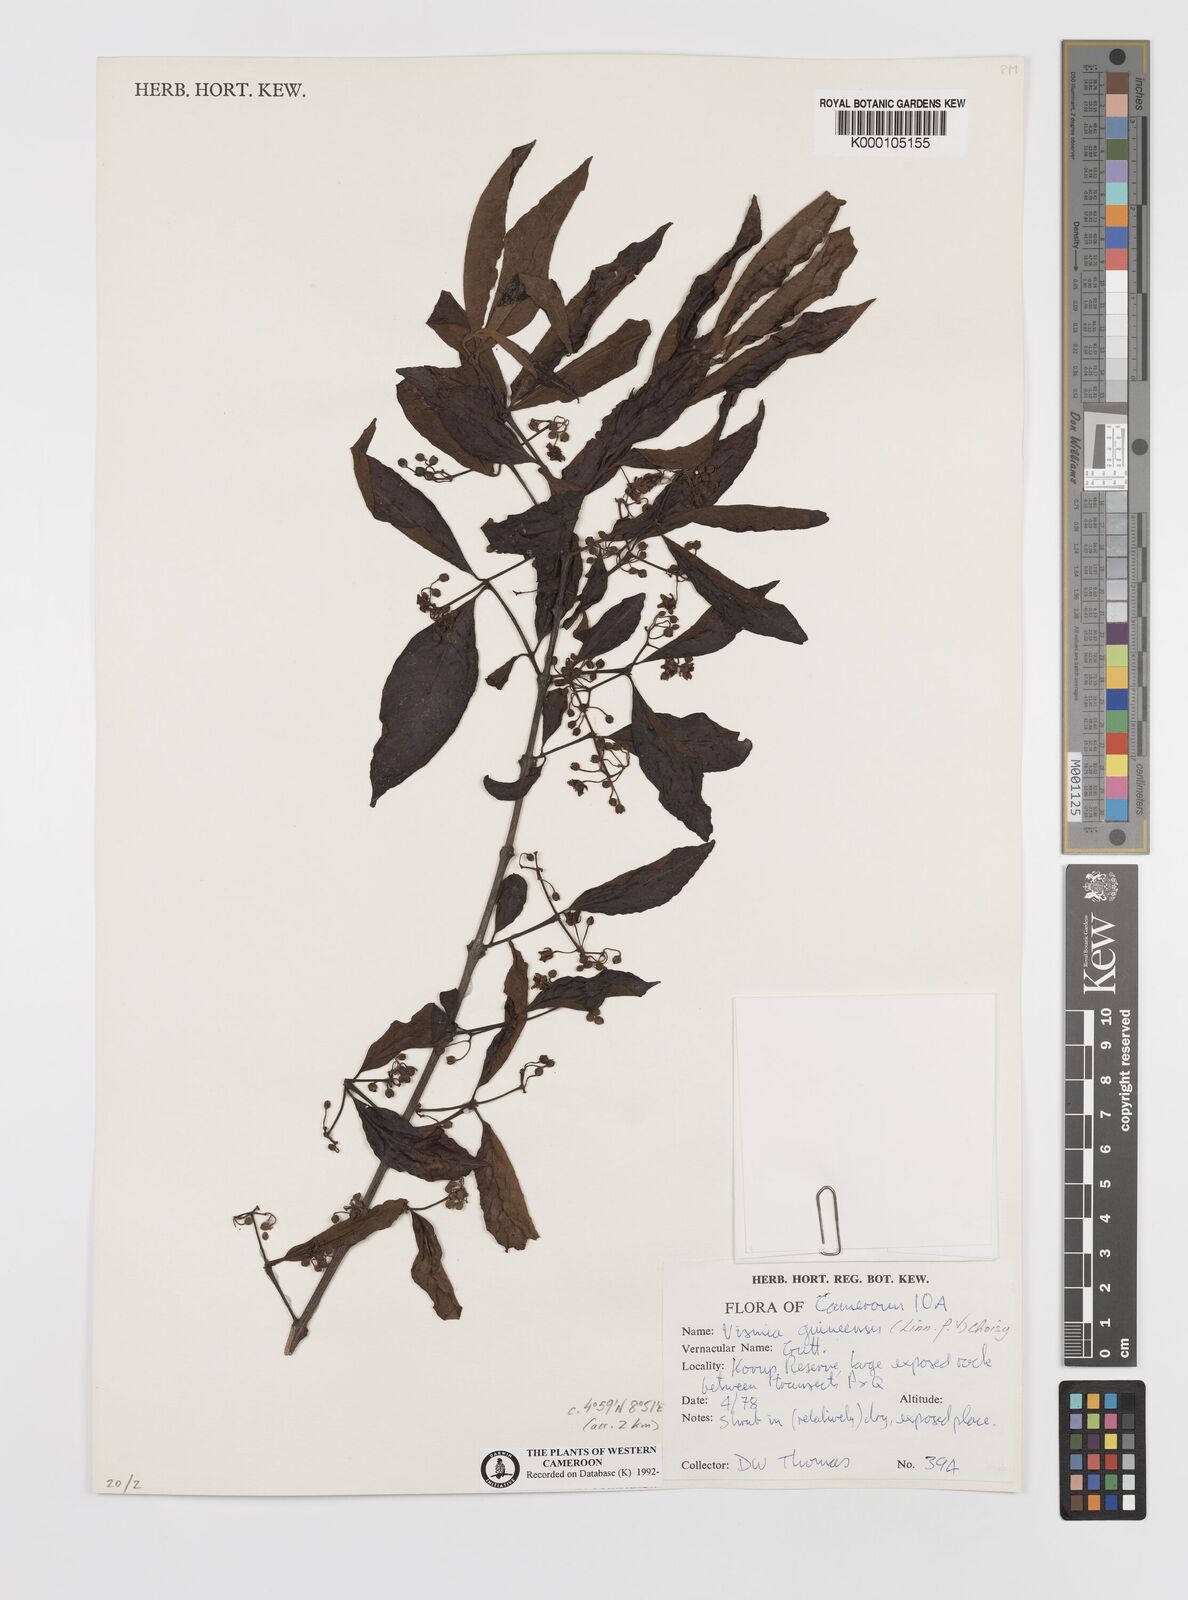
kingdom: Plantae
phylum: Tracheophyta
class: Magnoliopsida
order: Malpighiales
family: Hypericaceae
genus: Psorospermum
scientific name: Psorospermum guineense
